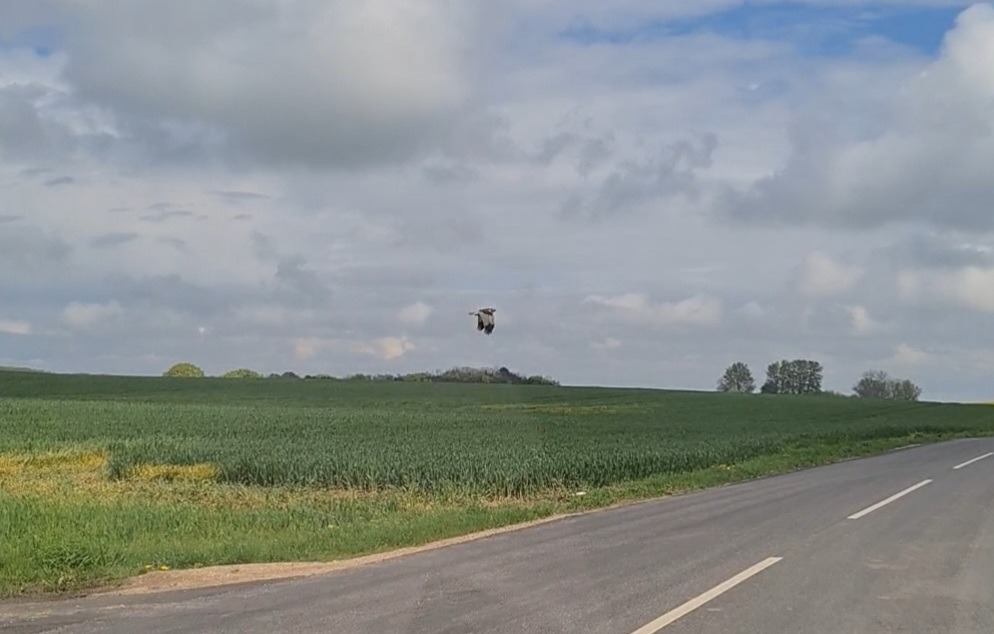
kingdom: Animalia
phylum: Chordata
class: Aves
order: Accipitriformes
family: Accipitridae
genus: Circus
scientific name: Circus aeruginosus
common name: Rørhøg
